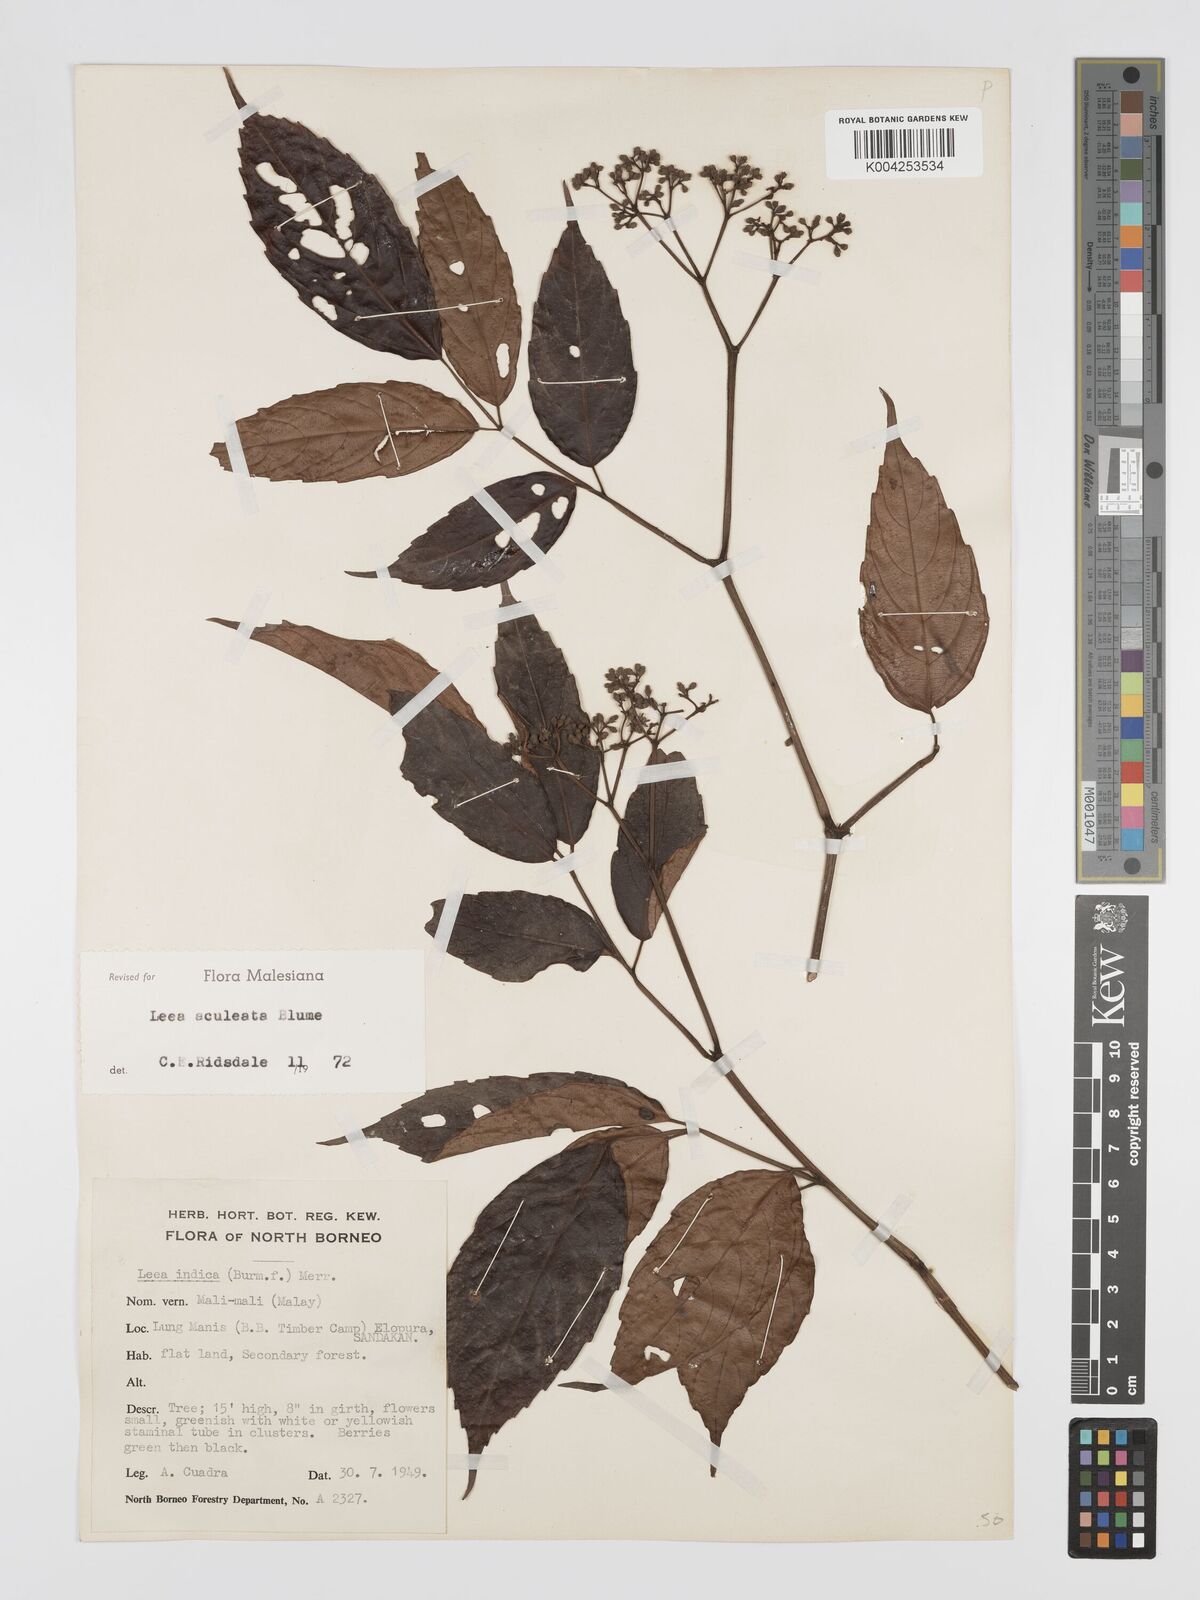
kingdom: Plantae
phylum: Tracheophyta
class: Magnoliopsida
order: Vitales
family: Vitaceae
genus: Leea
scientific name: Leea aculeata
